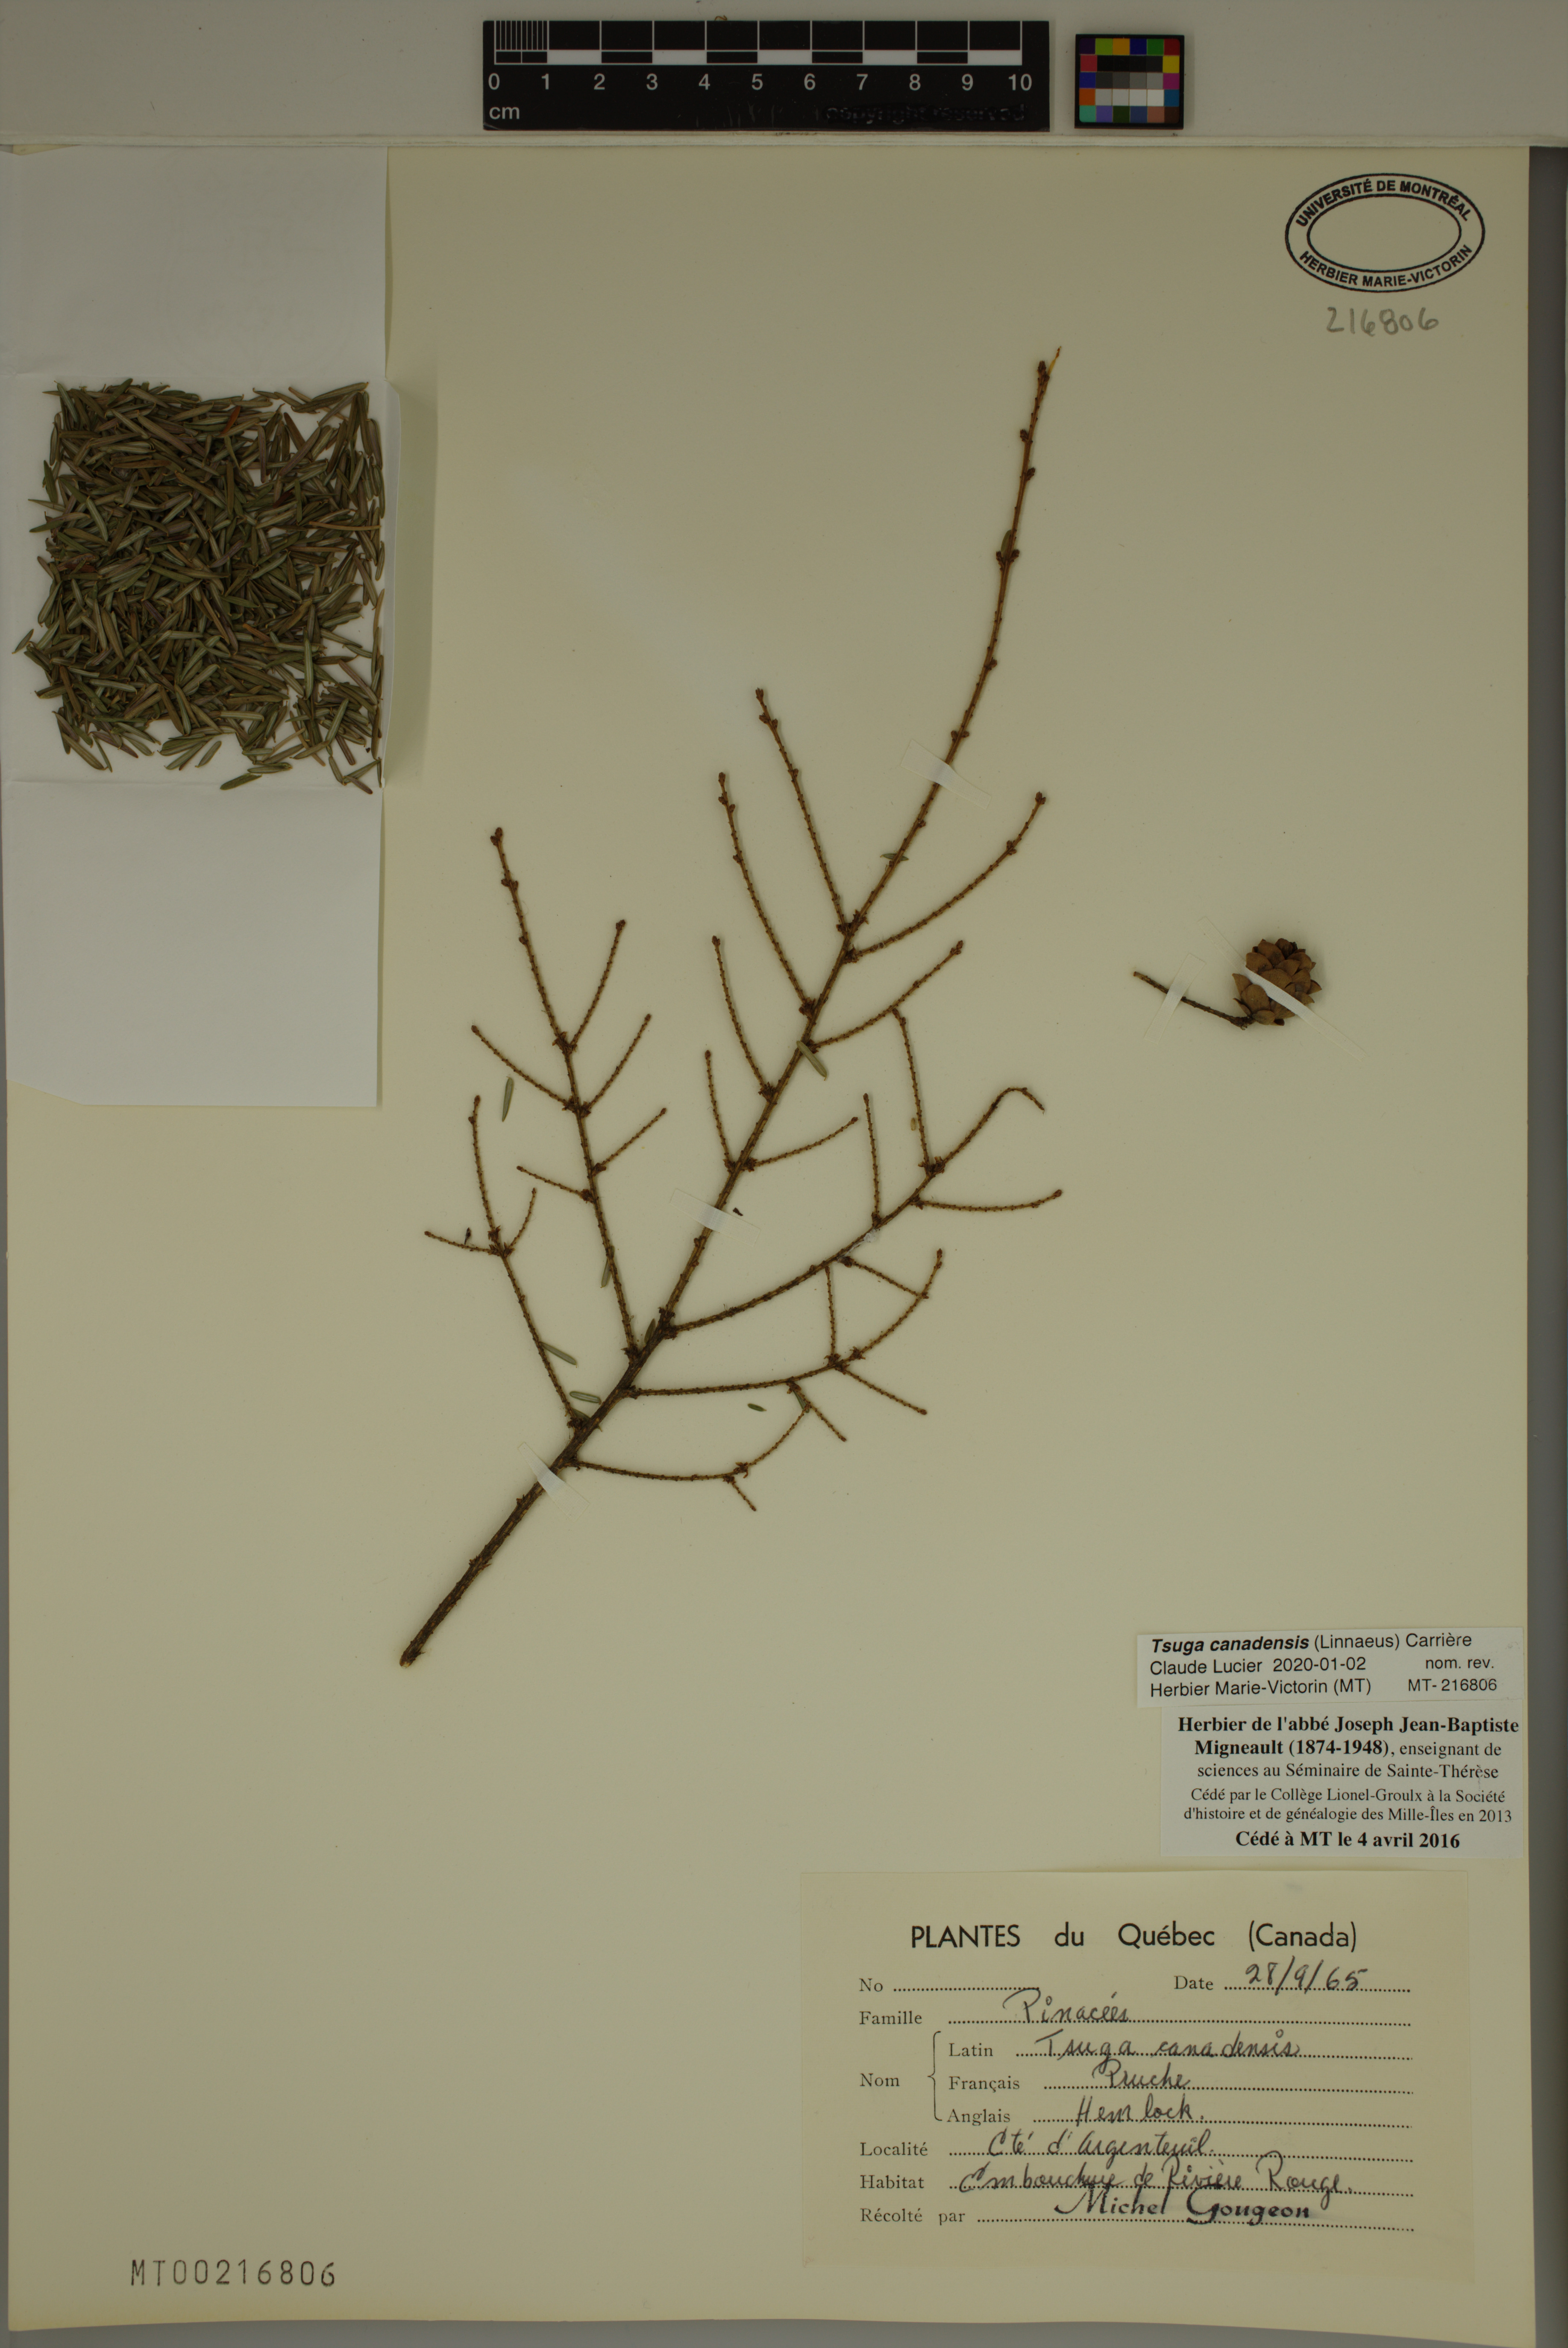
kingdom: Plantae
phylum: Tracheophyta
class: Pinopsida
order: Pinales
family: Pinaceae
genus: Tsuga
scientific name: Tsuga canadensis
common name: Eastern hemlock
